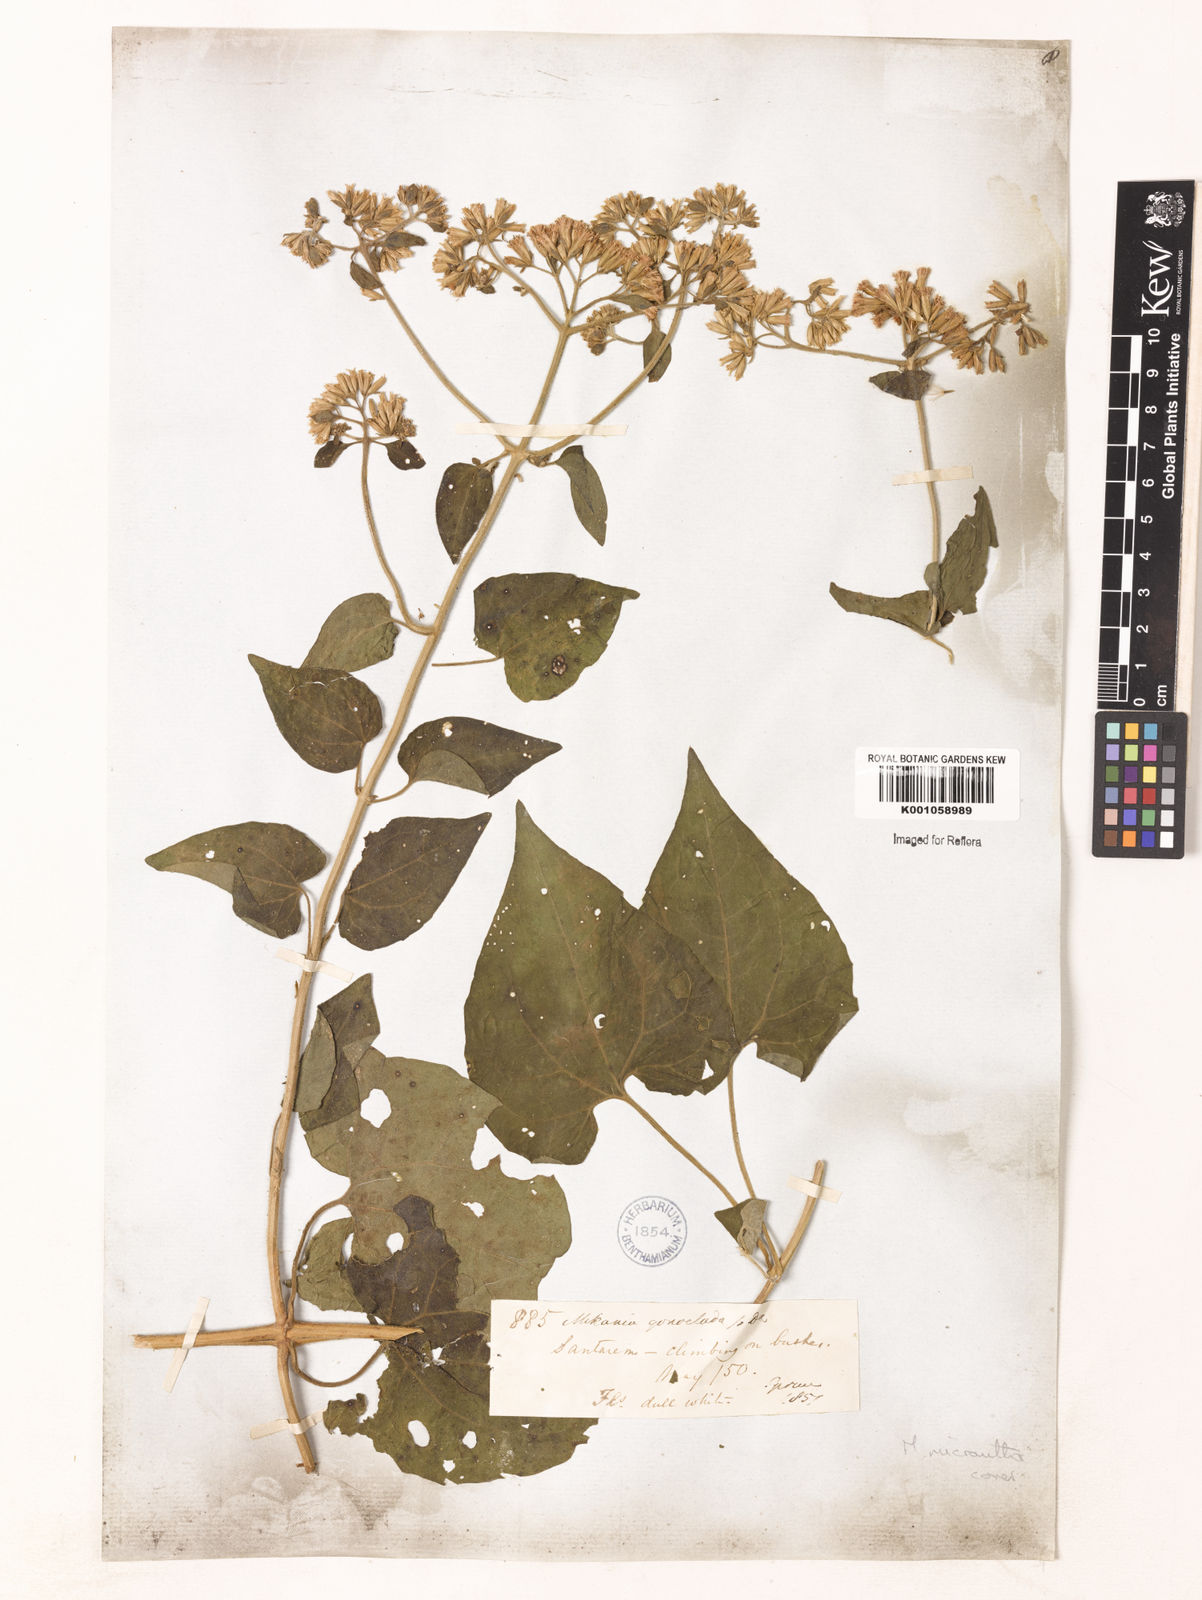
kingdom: Plantae
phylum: Tracheophyta
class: Magnoliopsida
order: Asterales
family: Asteraceae
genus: Mikania
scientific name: Mikania cordifolia
